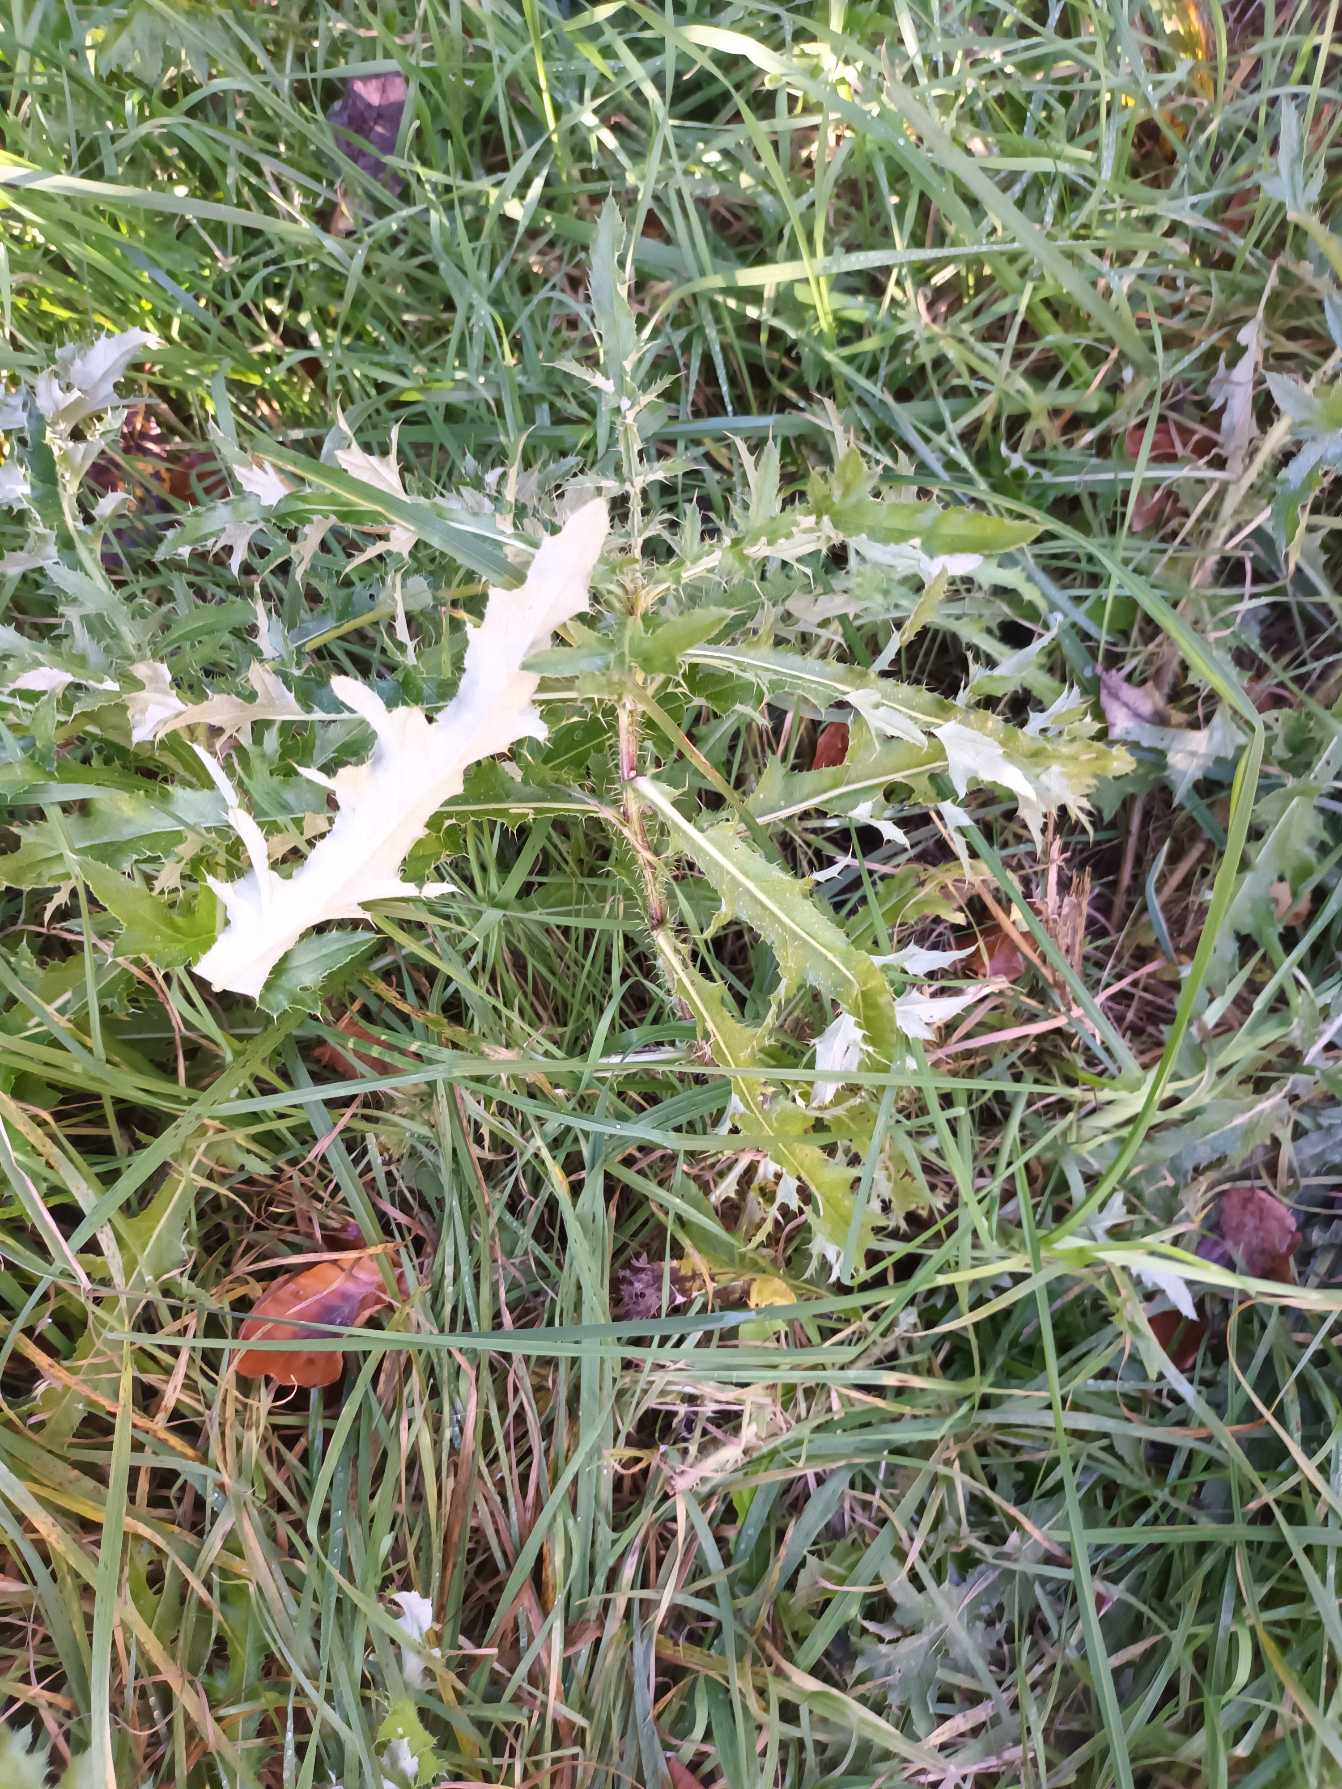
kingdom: Plantae
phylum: Tracheophyta
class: Magnoliopsida
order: Asterales
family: Asteraceae
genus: Cirsium
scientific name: Cirsium arvense
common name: Ager-tidsel
